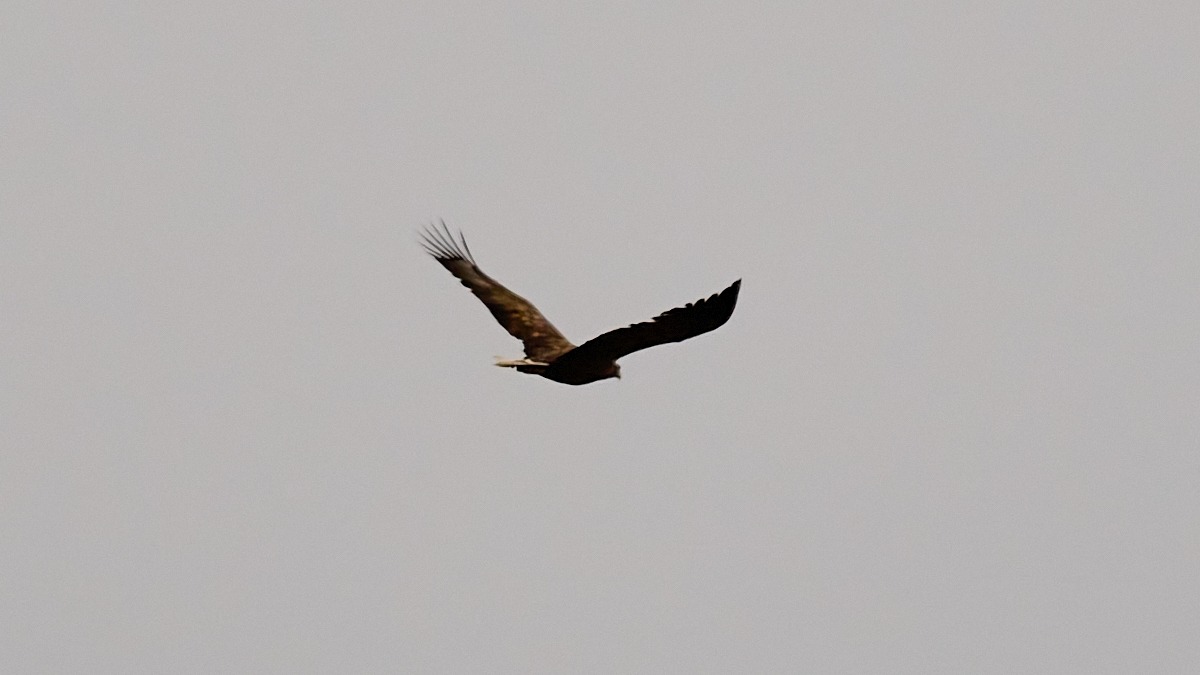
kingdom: Animalia
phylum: Chordata
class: Aves
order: Accipitriformes
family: Accipitridae
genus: Haliaeetus
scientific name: Haliaeetus albicilla
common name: Havørn
